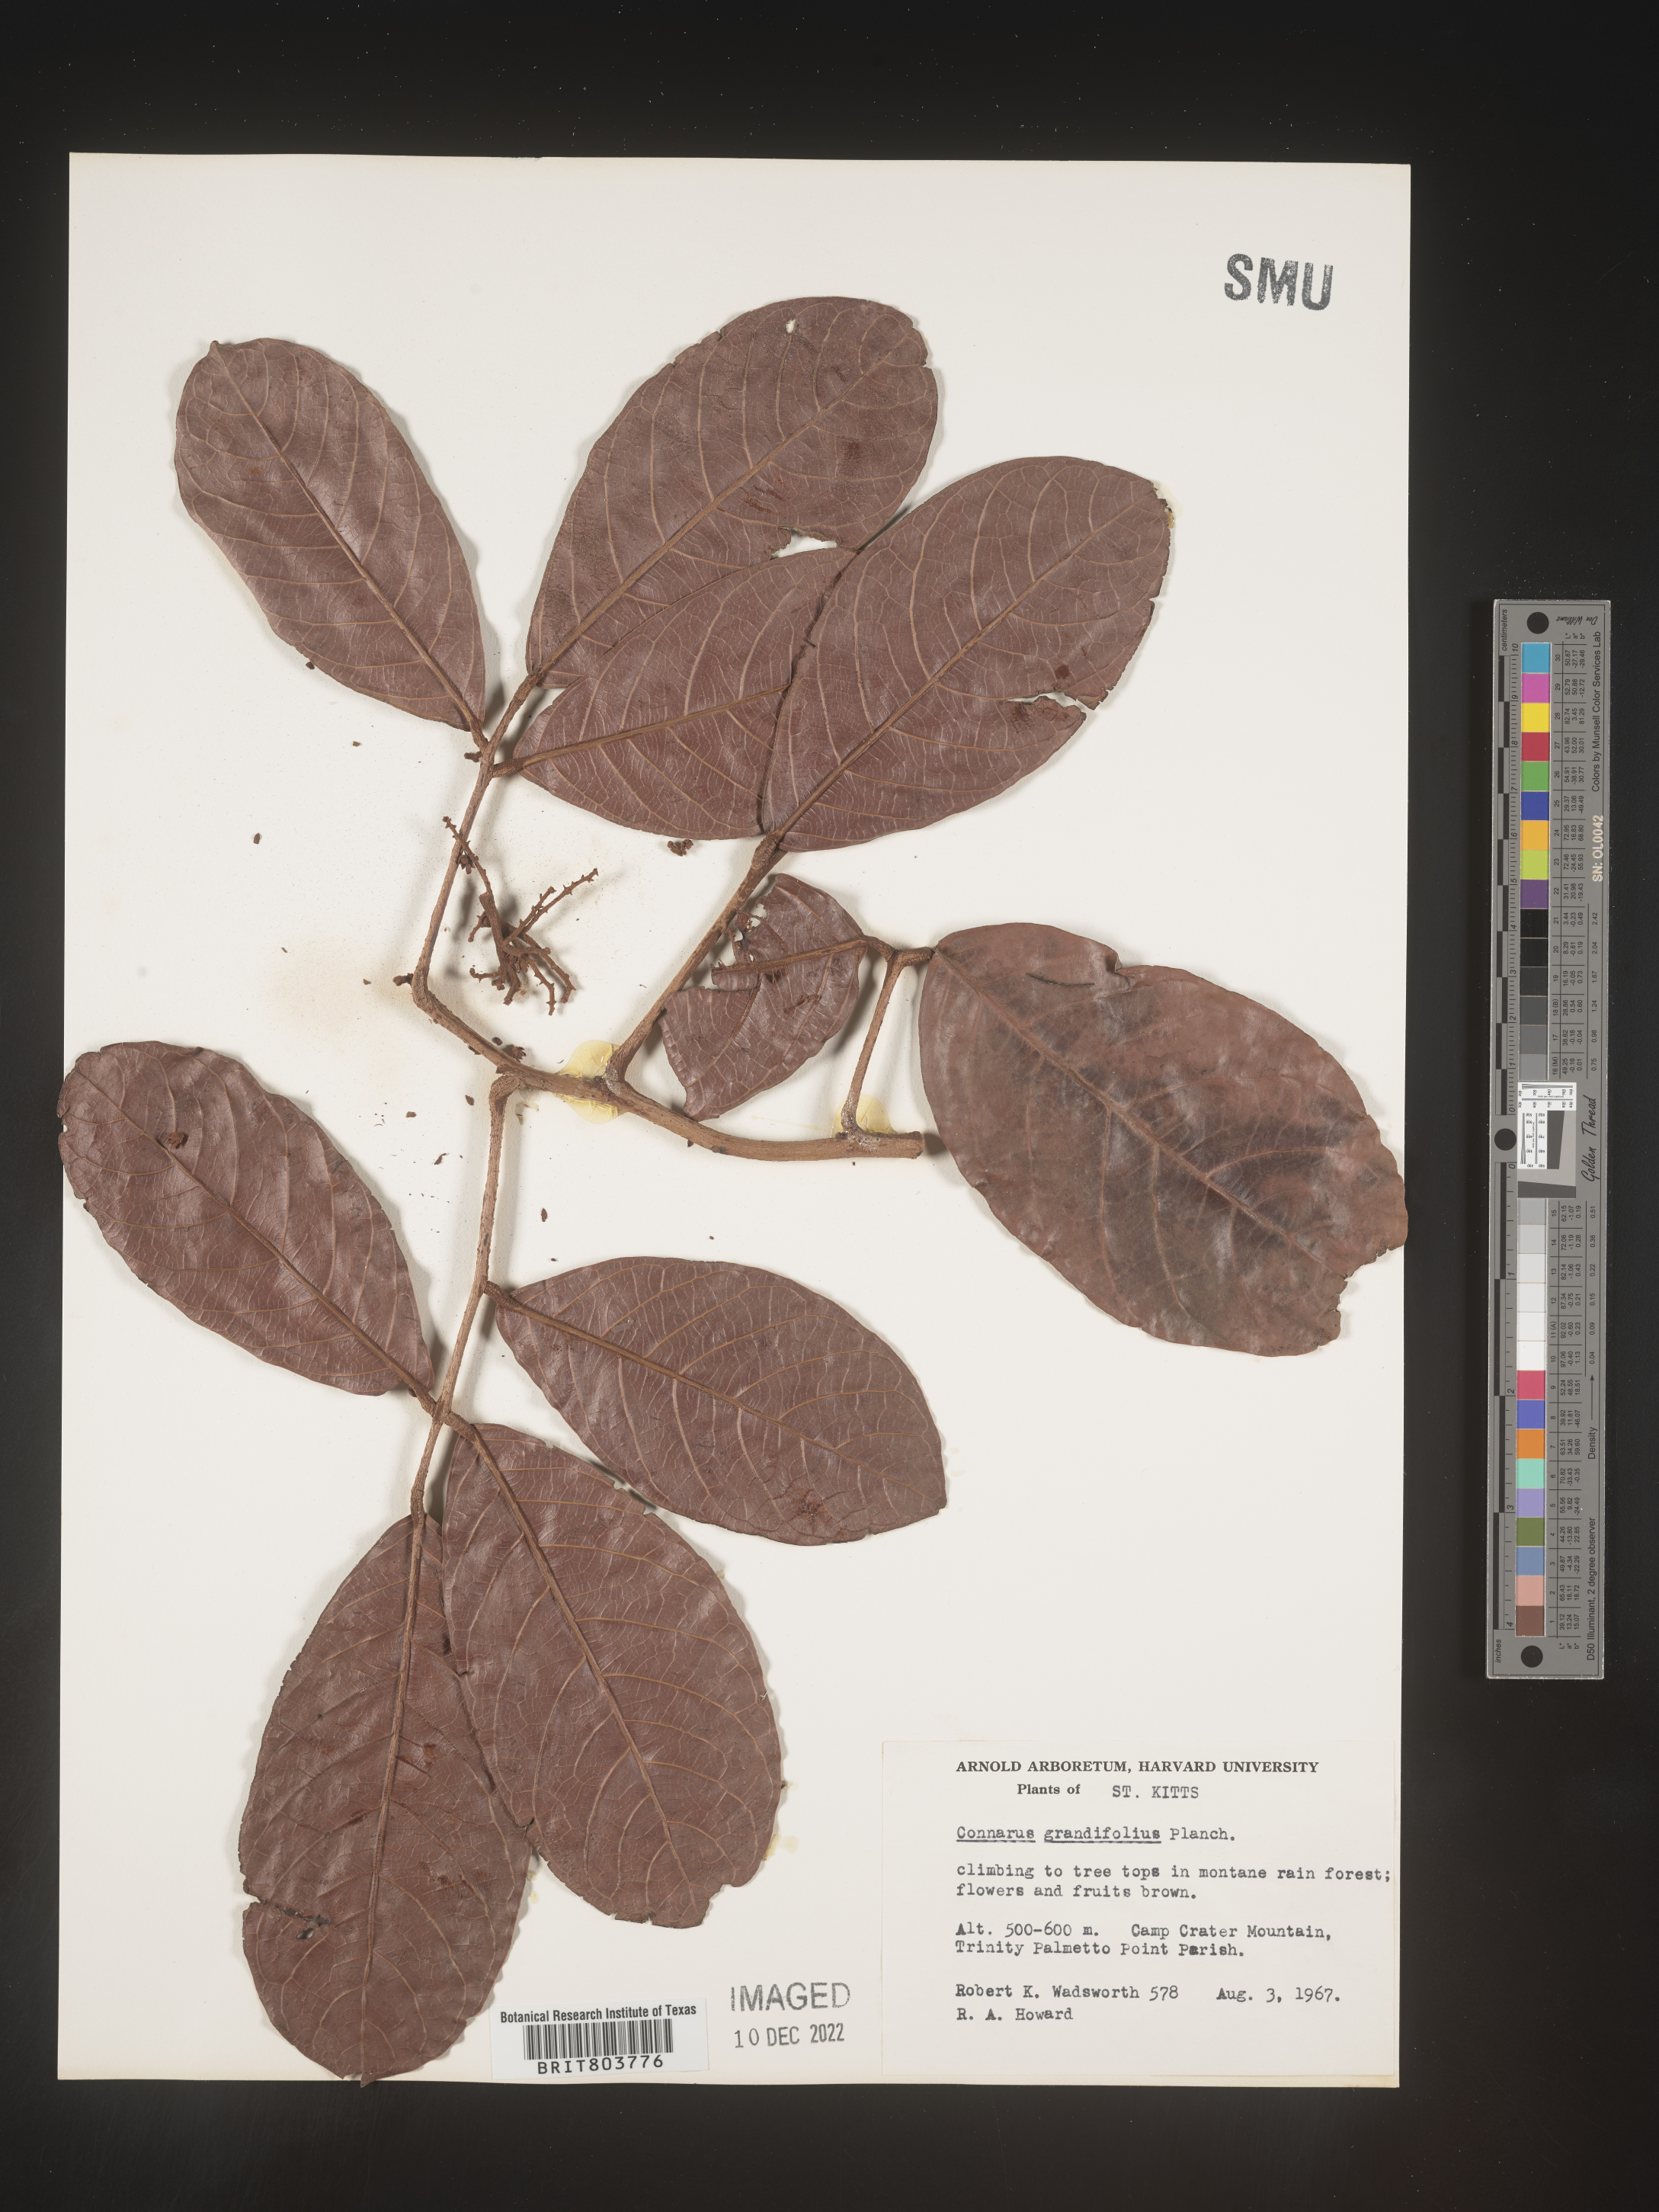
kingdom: Plantae
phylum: Tracheophyta
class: Magnoliopsida
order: Oxalidales
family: Connaraceae
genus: Connarus
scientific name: Connarus
